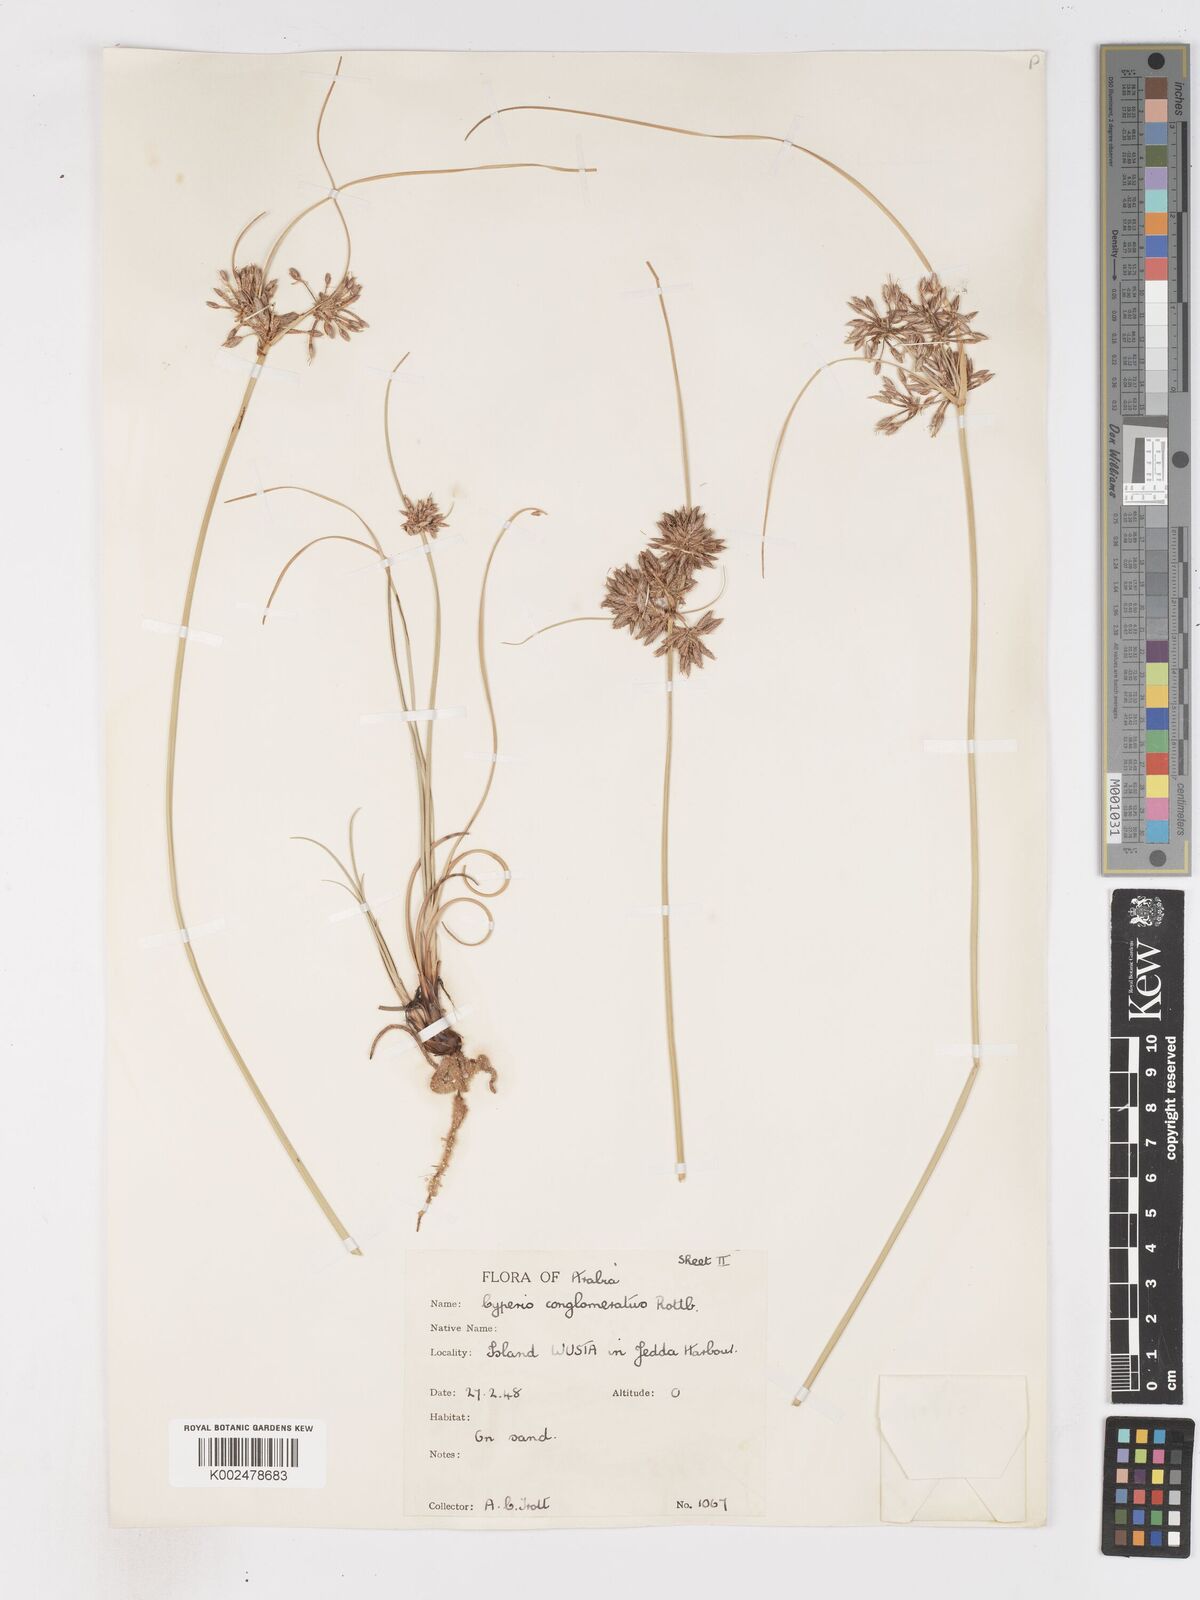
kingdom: Plantae
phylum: Tracheophyta
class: Liliopsida
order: Poales
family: Cyperaceae
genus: Cyperus
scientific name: Cyperus conglomeratus
